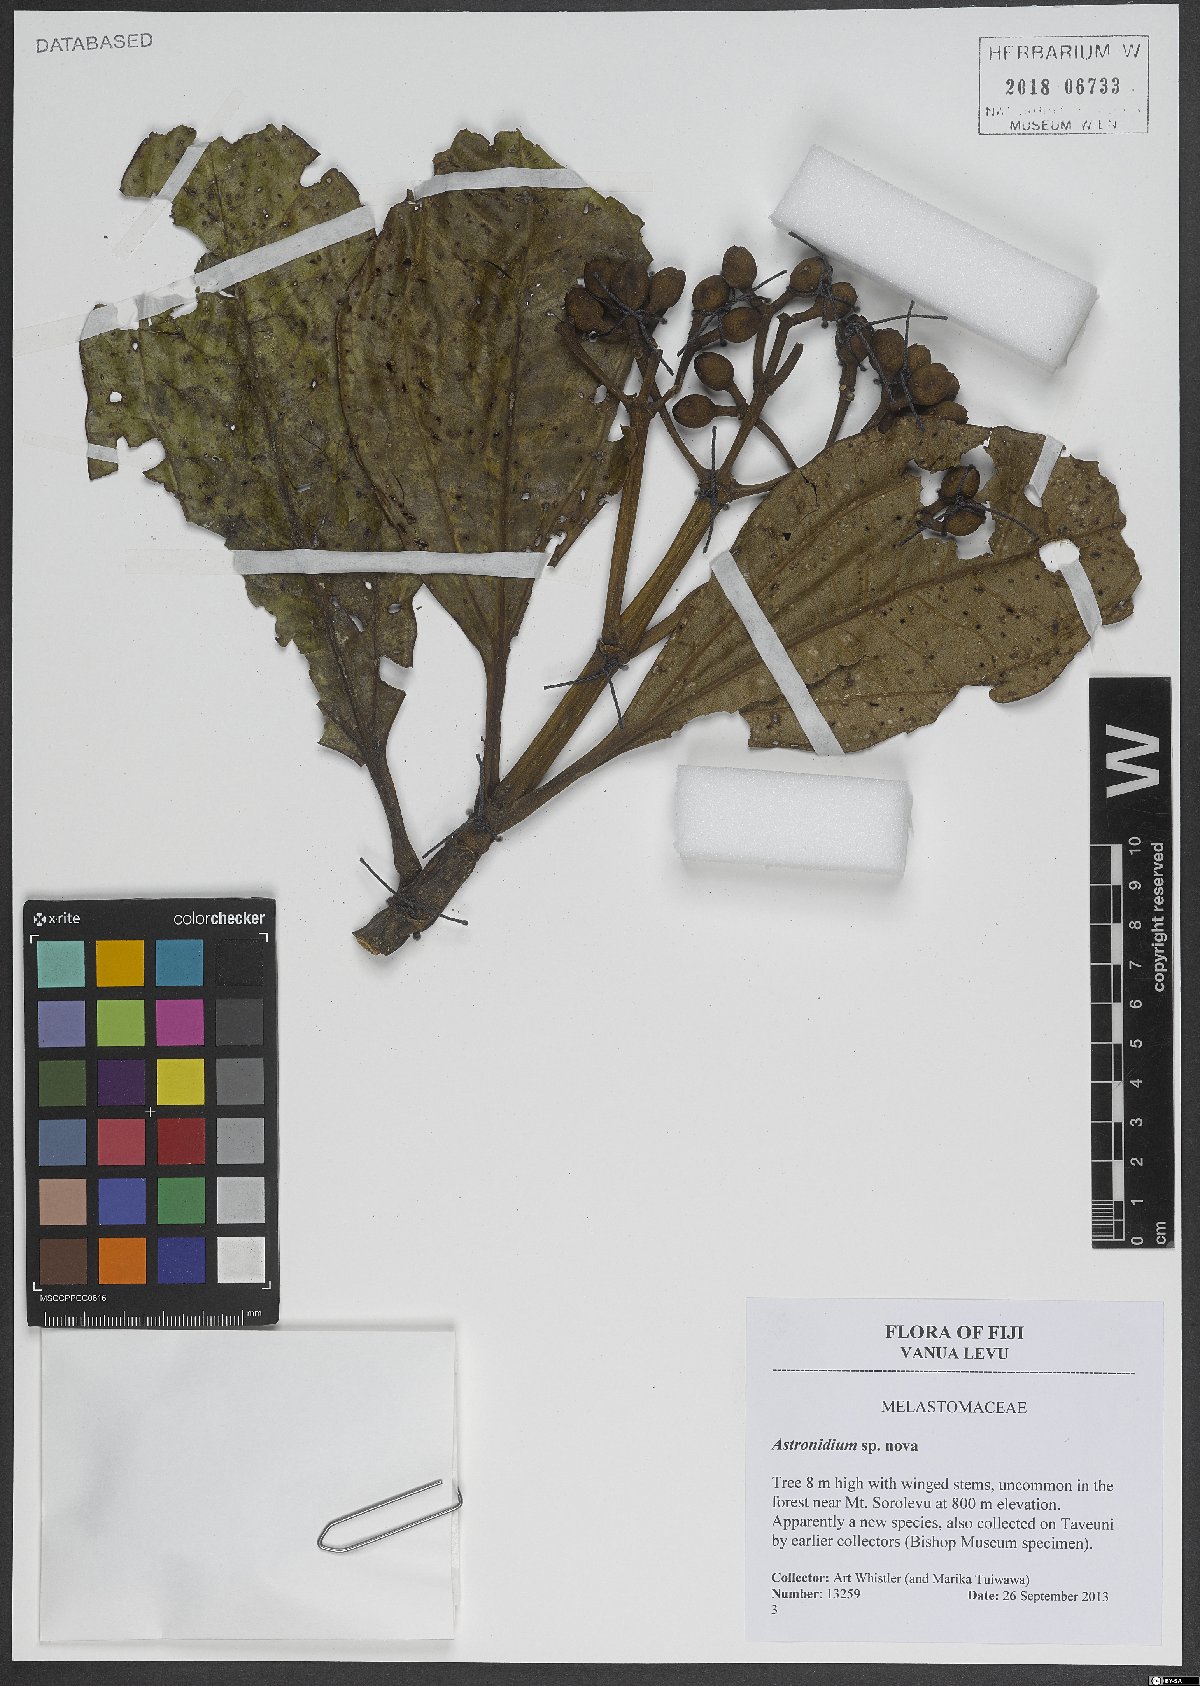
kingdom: Plantae
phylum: Tracheophyta
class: Magnoliopsida
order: Myrtales
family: Melastomataceae
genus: Astronidium
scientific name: Astronidium
